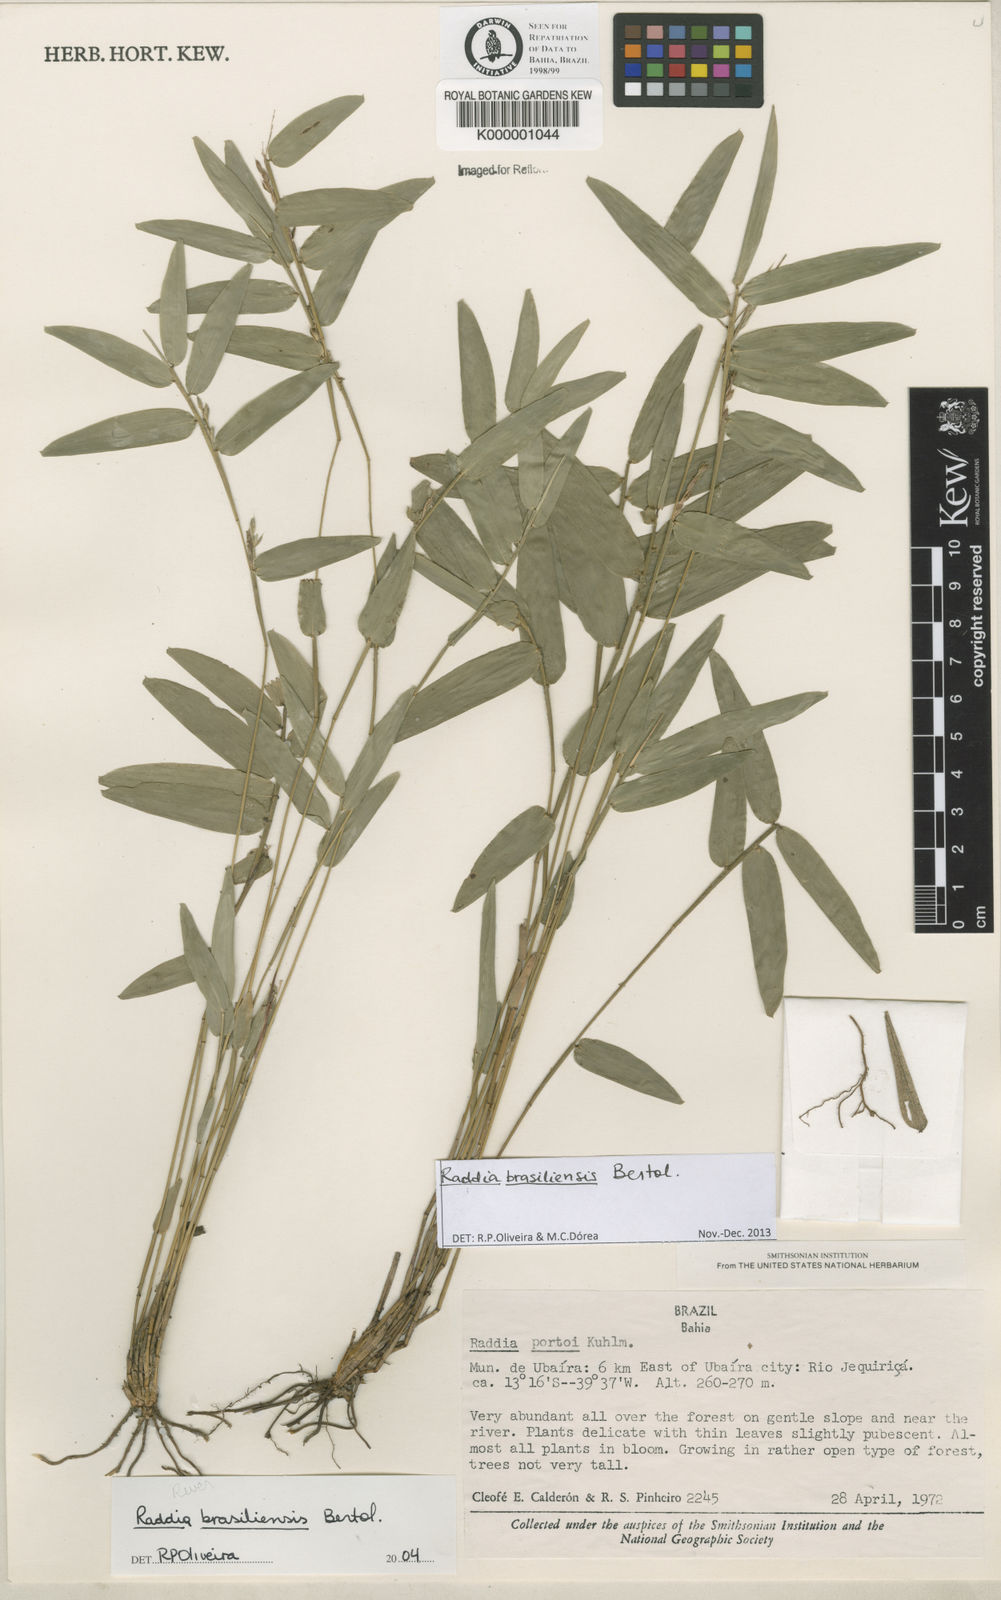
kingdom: Plantae
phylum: Tracheophyta
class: Liliopsida
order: Poales
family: Poaceae
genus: Raddia
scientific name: Raddia portoi
